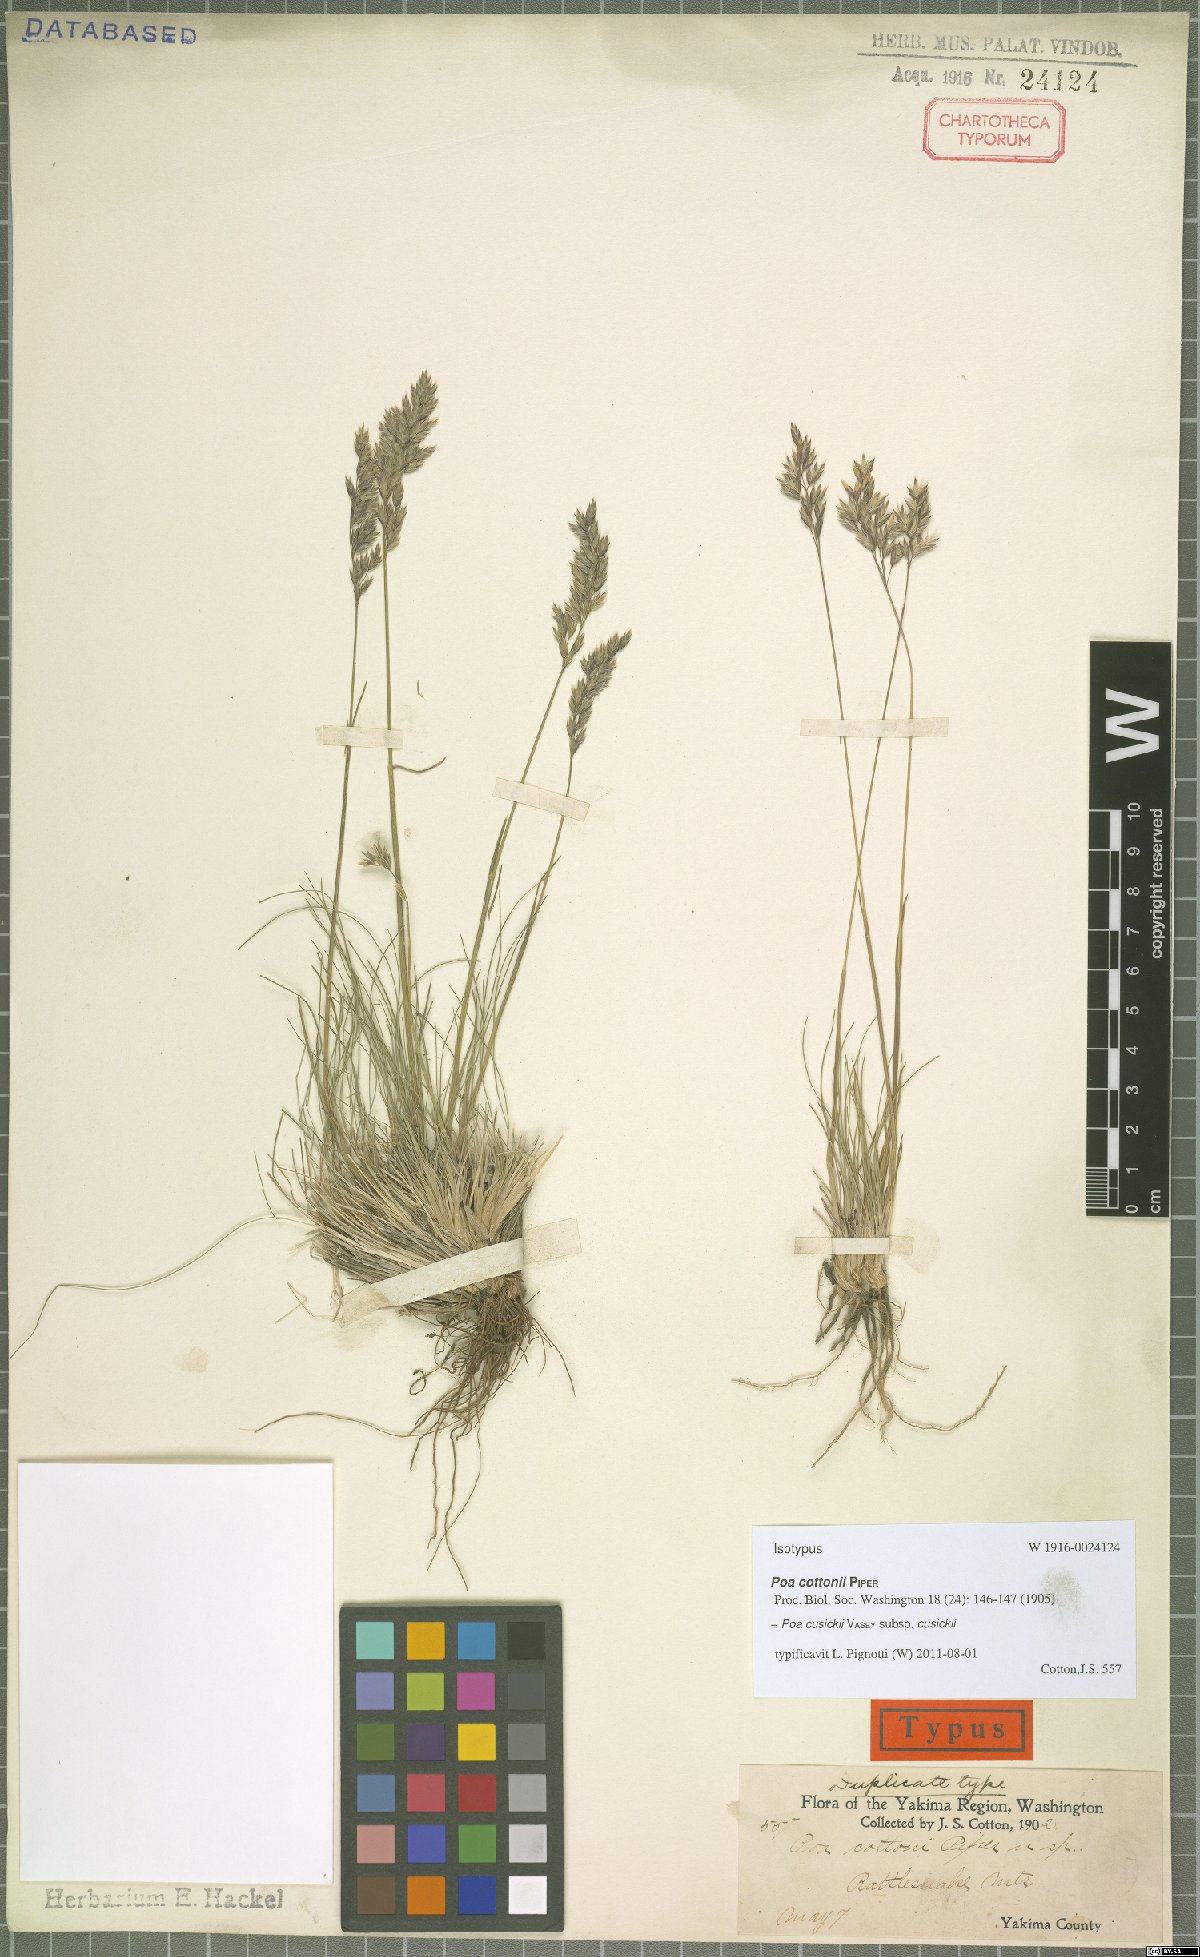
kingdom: Plantae
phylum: Tracheophyta
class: Liliopsida
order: Poales
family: Poaceae
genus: Poa
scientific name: Poa cusickii
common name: Cusick's bluegrass
